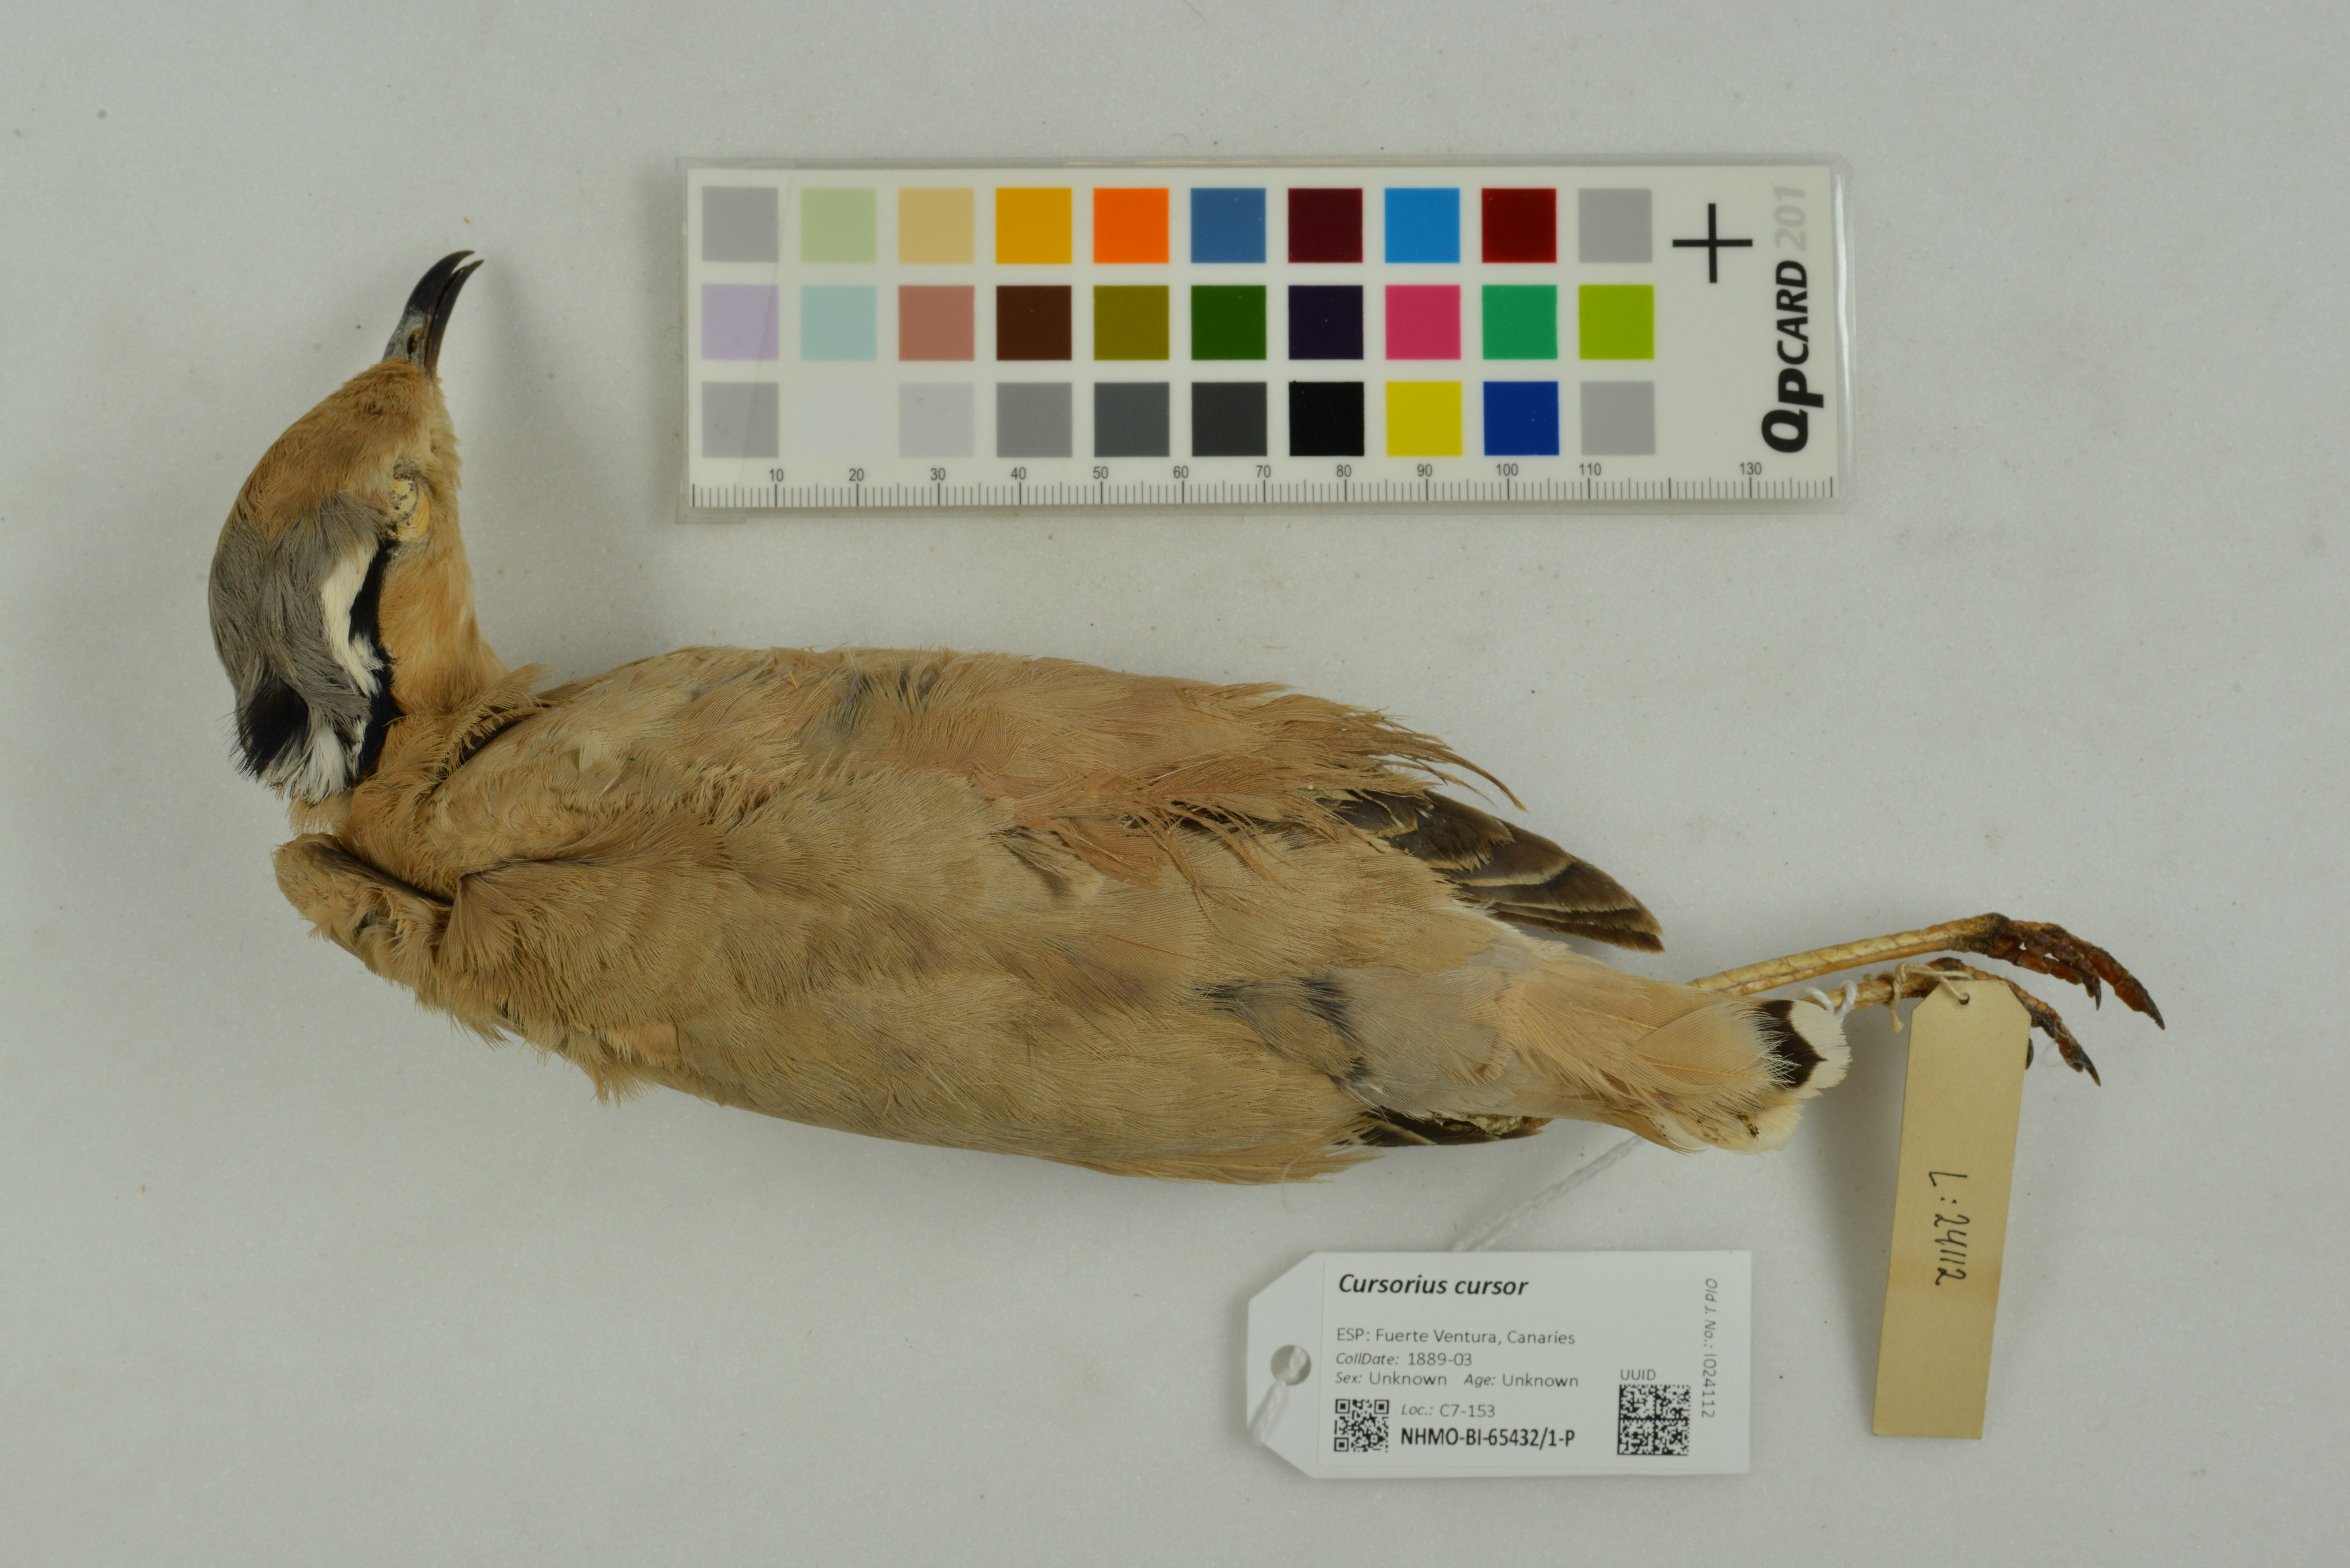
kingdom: Animalia
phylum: Chordata
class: Aves
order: Charadriiformes
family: Glareolidae
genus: Cursorius
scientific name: Cursorius cursor
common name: Cream-colored courser
